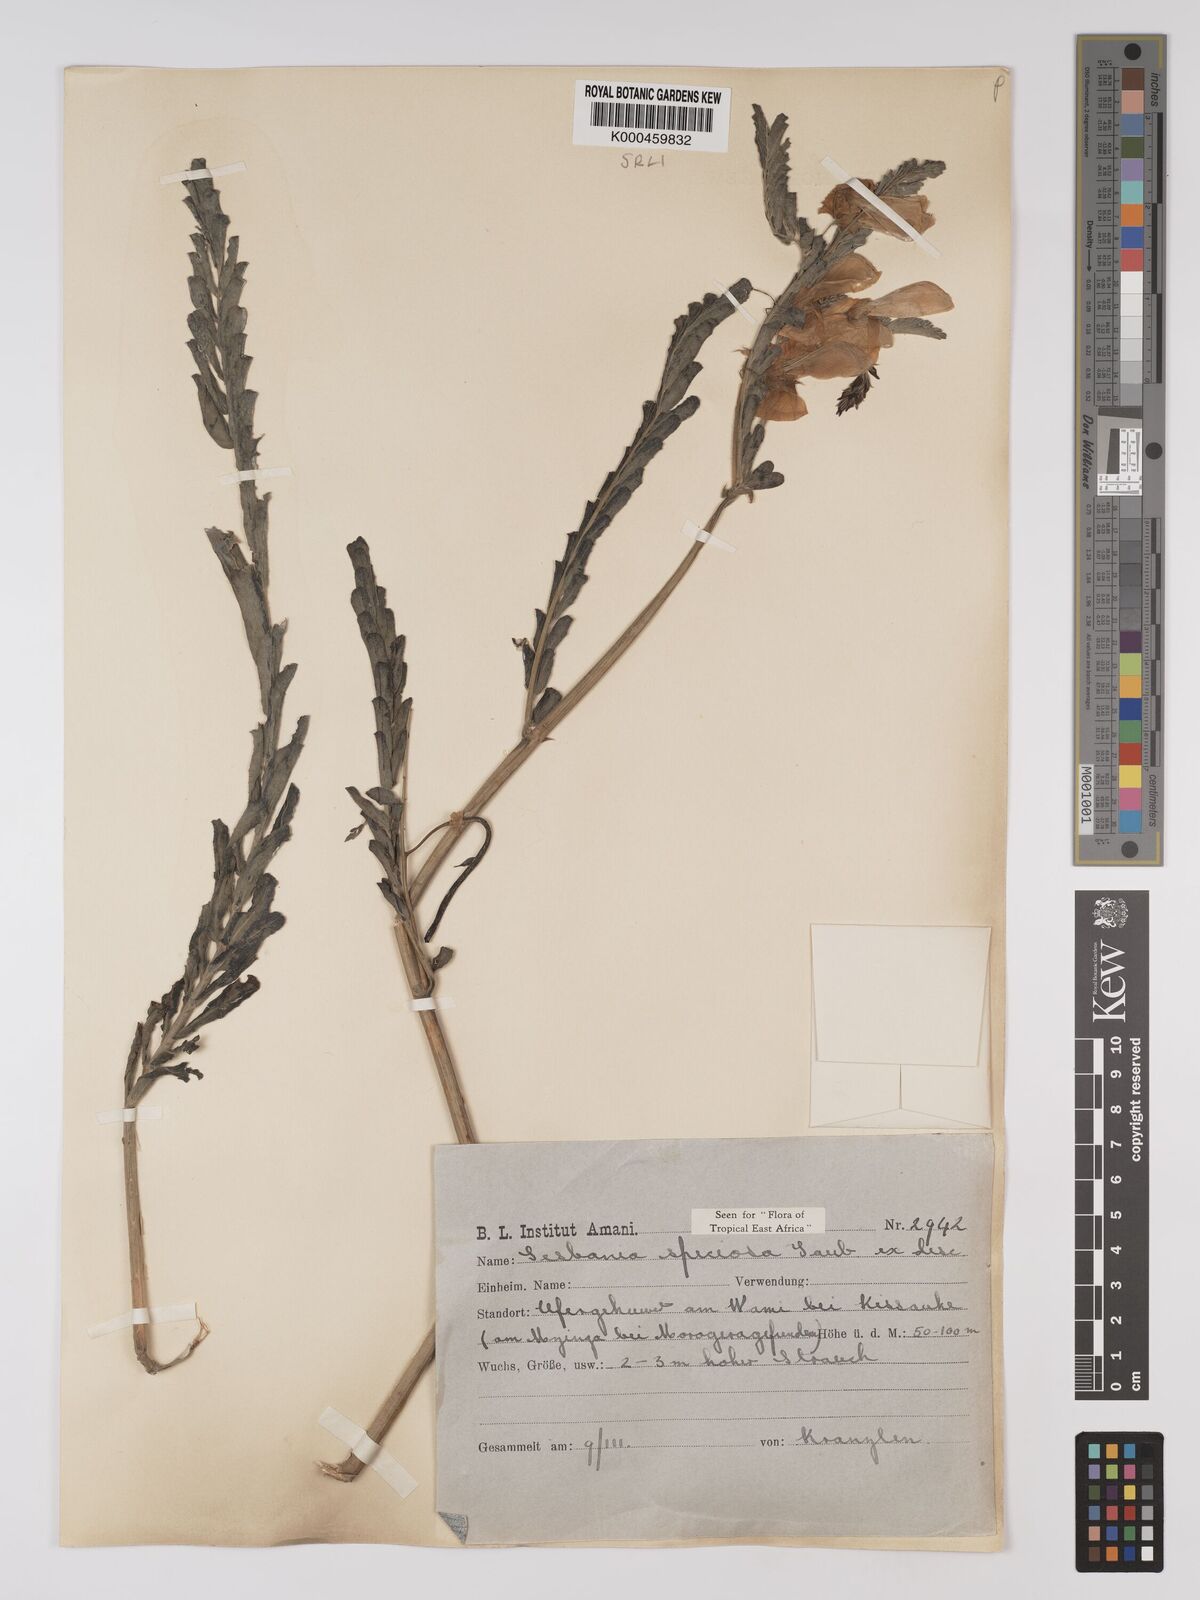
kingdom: Plantae
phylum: Tracheophyta
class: Magnoliopsida
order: Fabales
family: Fabaceae
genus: Sesbania
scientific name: Sesbania
